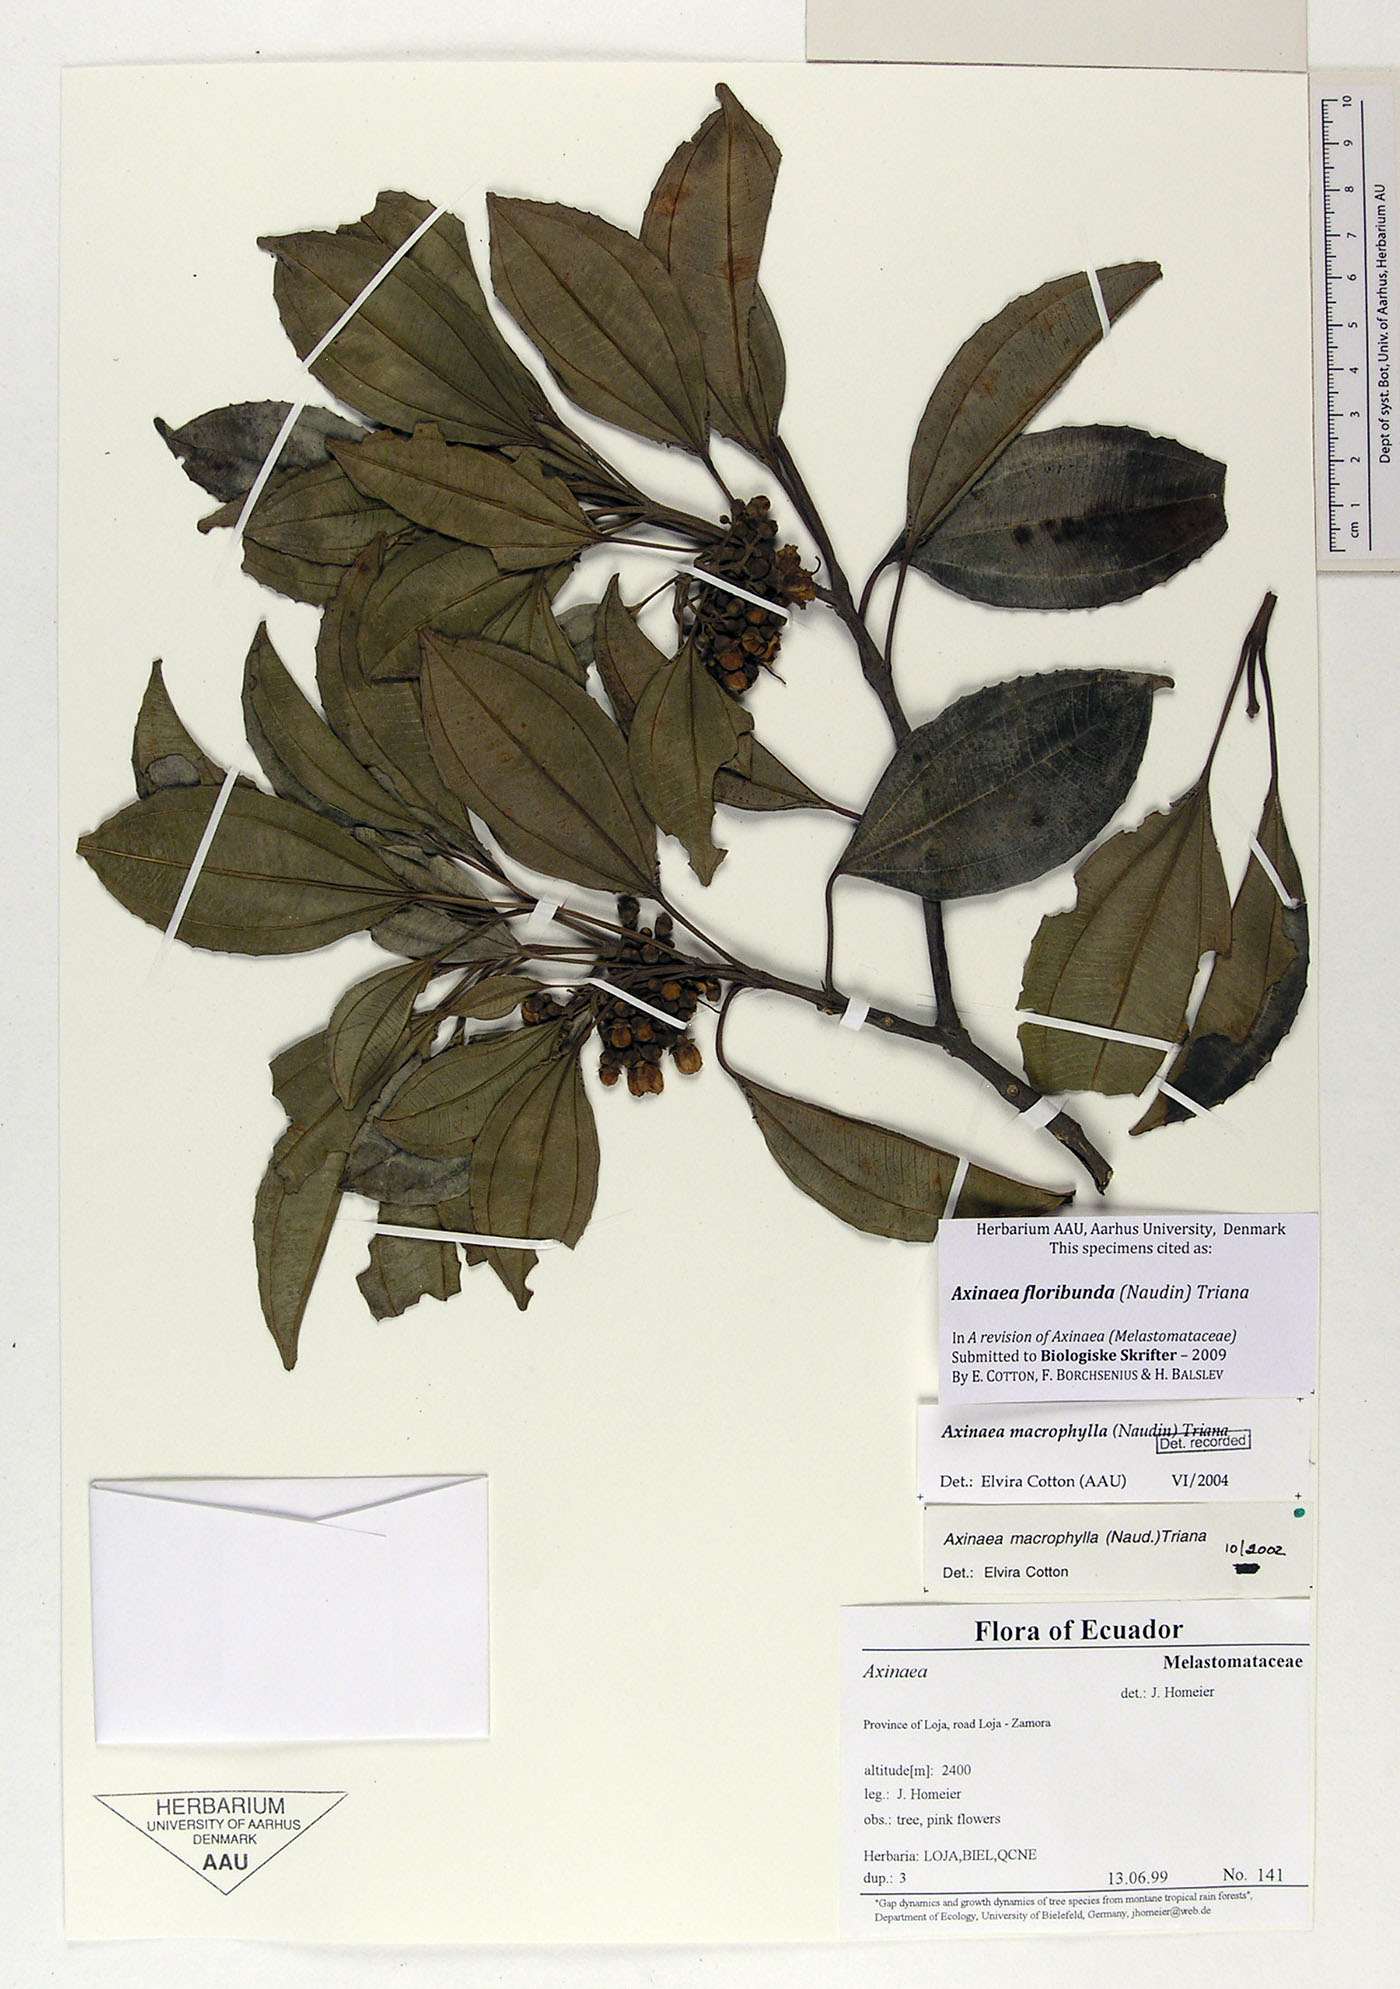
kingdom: Plantae
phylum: Tracheophyta
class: Magnoliopsida
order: Myrtales
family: Melastomataceae
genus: Axinaea
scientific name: Axinaea floribunda
